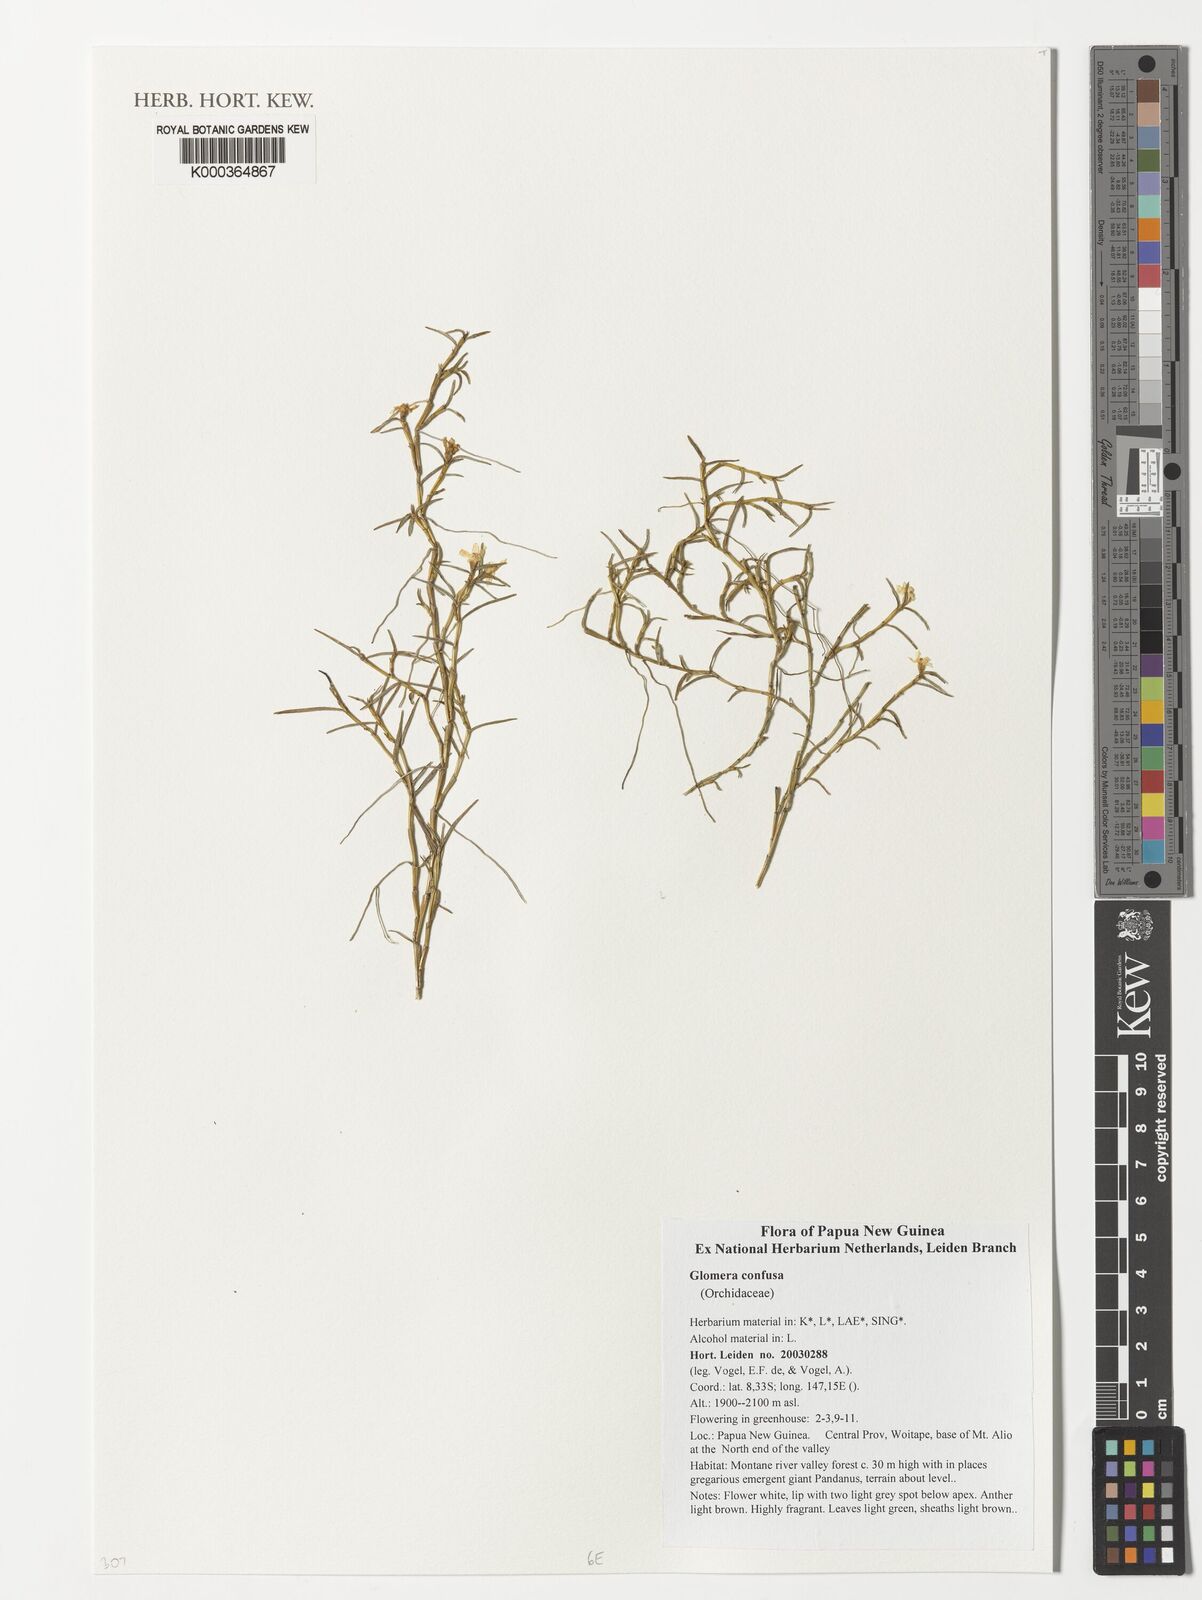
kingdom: Plantae
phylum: Tracheophyta
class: Liliopsida
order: Asparagales
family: Orchidaceae
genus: Glomera
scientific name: Glomera confusa
